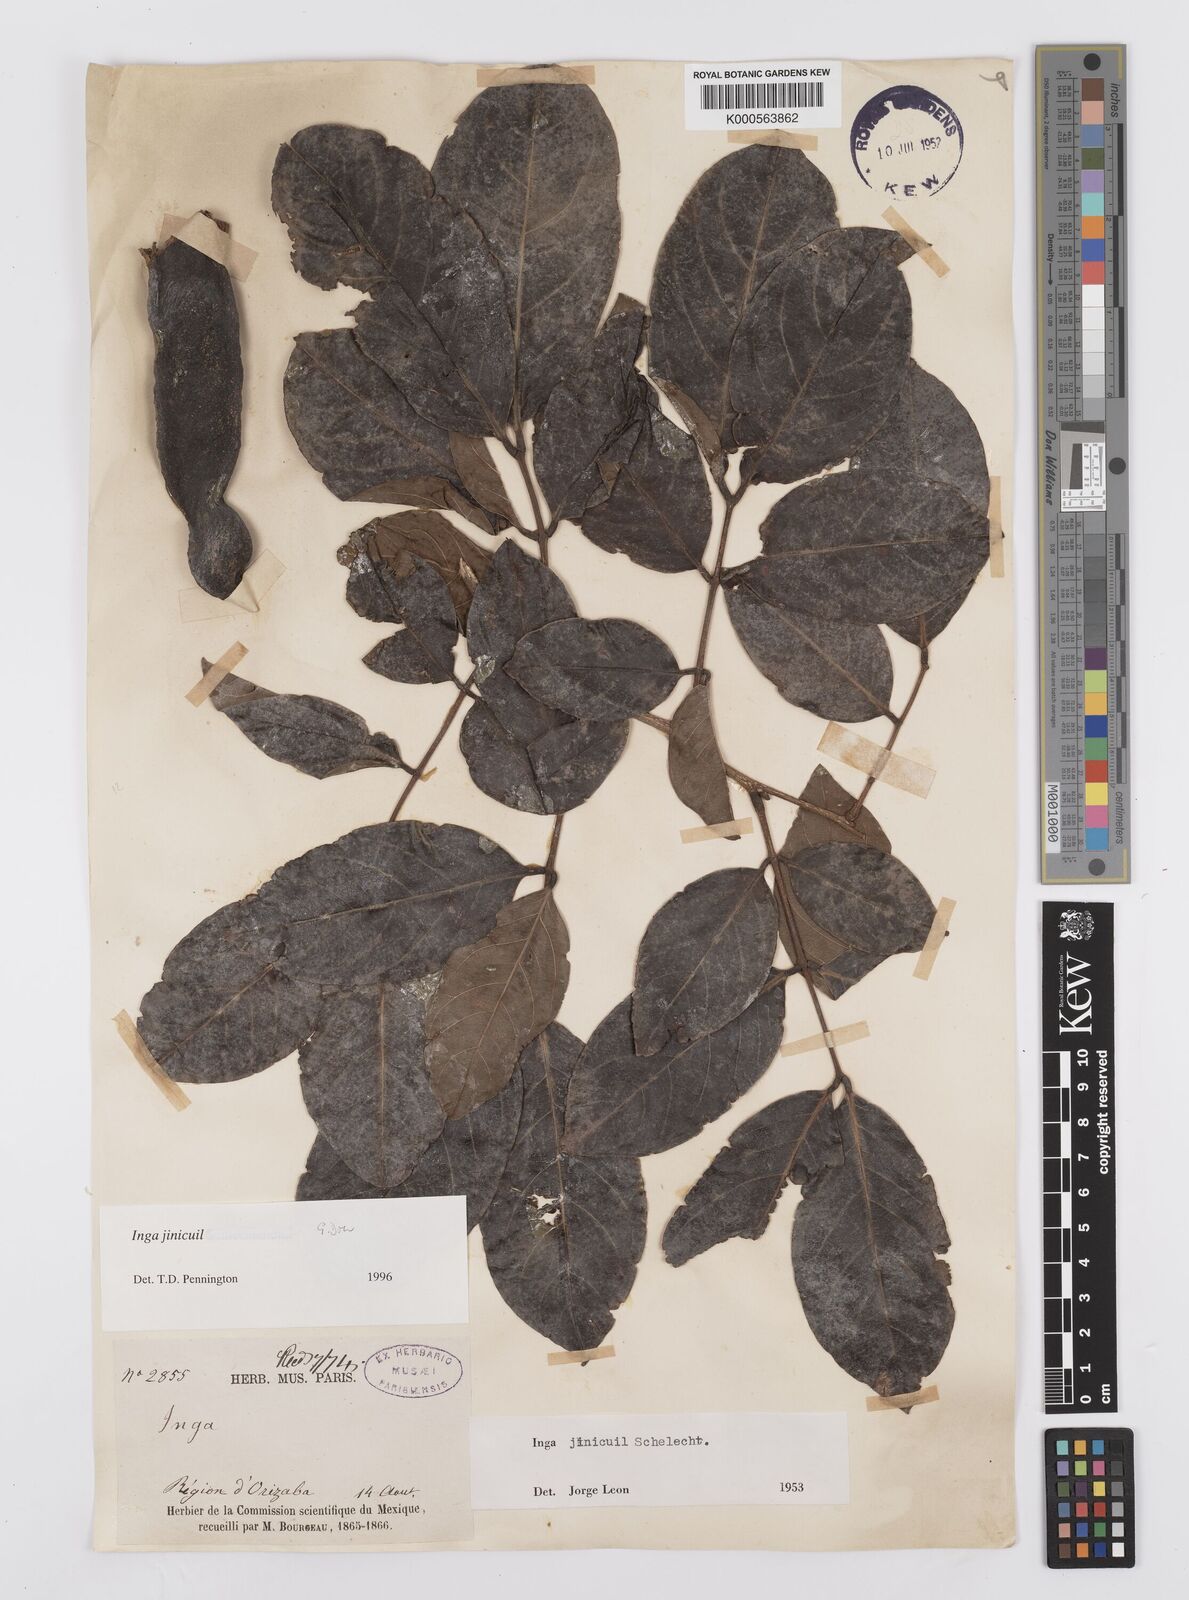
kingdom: Plantae
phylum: Tracheophyta
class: Magnoliopsida
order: Fabales
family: Fabaceae
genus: Inga
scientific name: Inga inicuil
